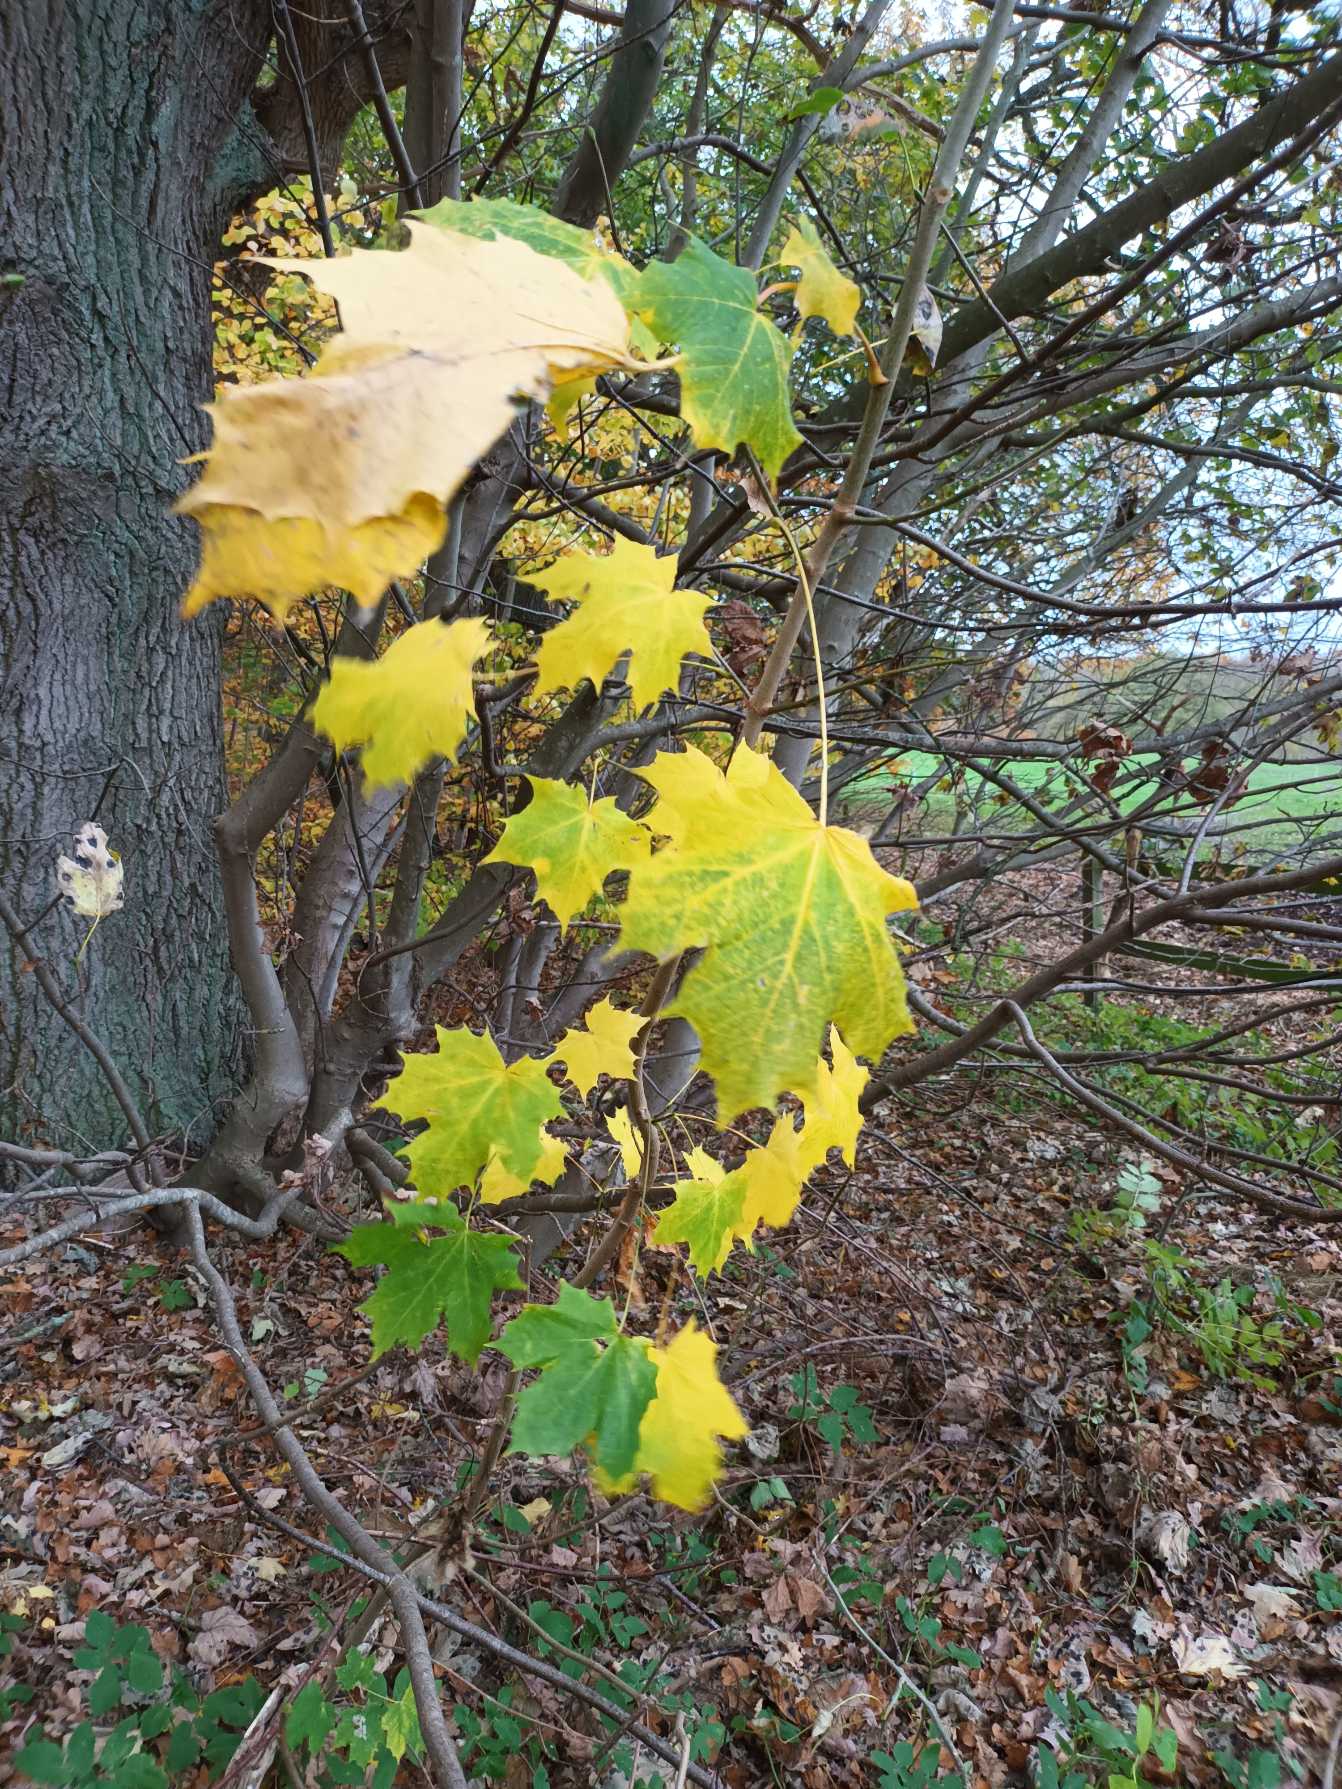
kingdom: Plantae
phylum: Tracheophyta
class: Magnoliopsida
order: Sapindales
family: Sapindaceae
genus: Acer
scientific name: Acer platanoides
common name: Spids-løn
